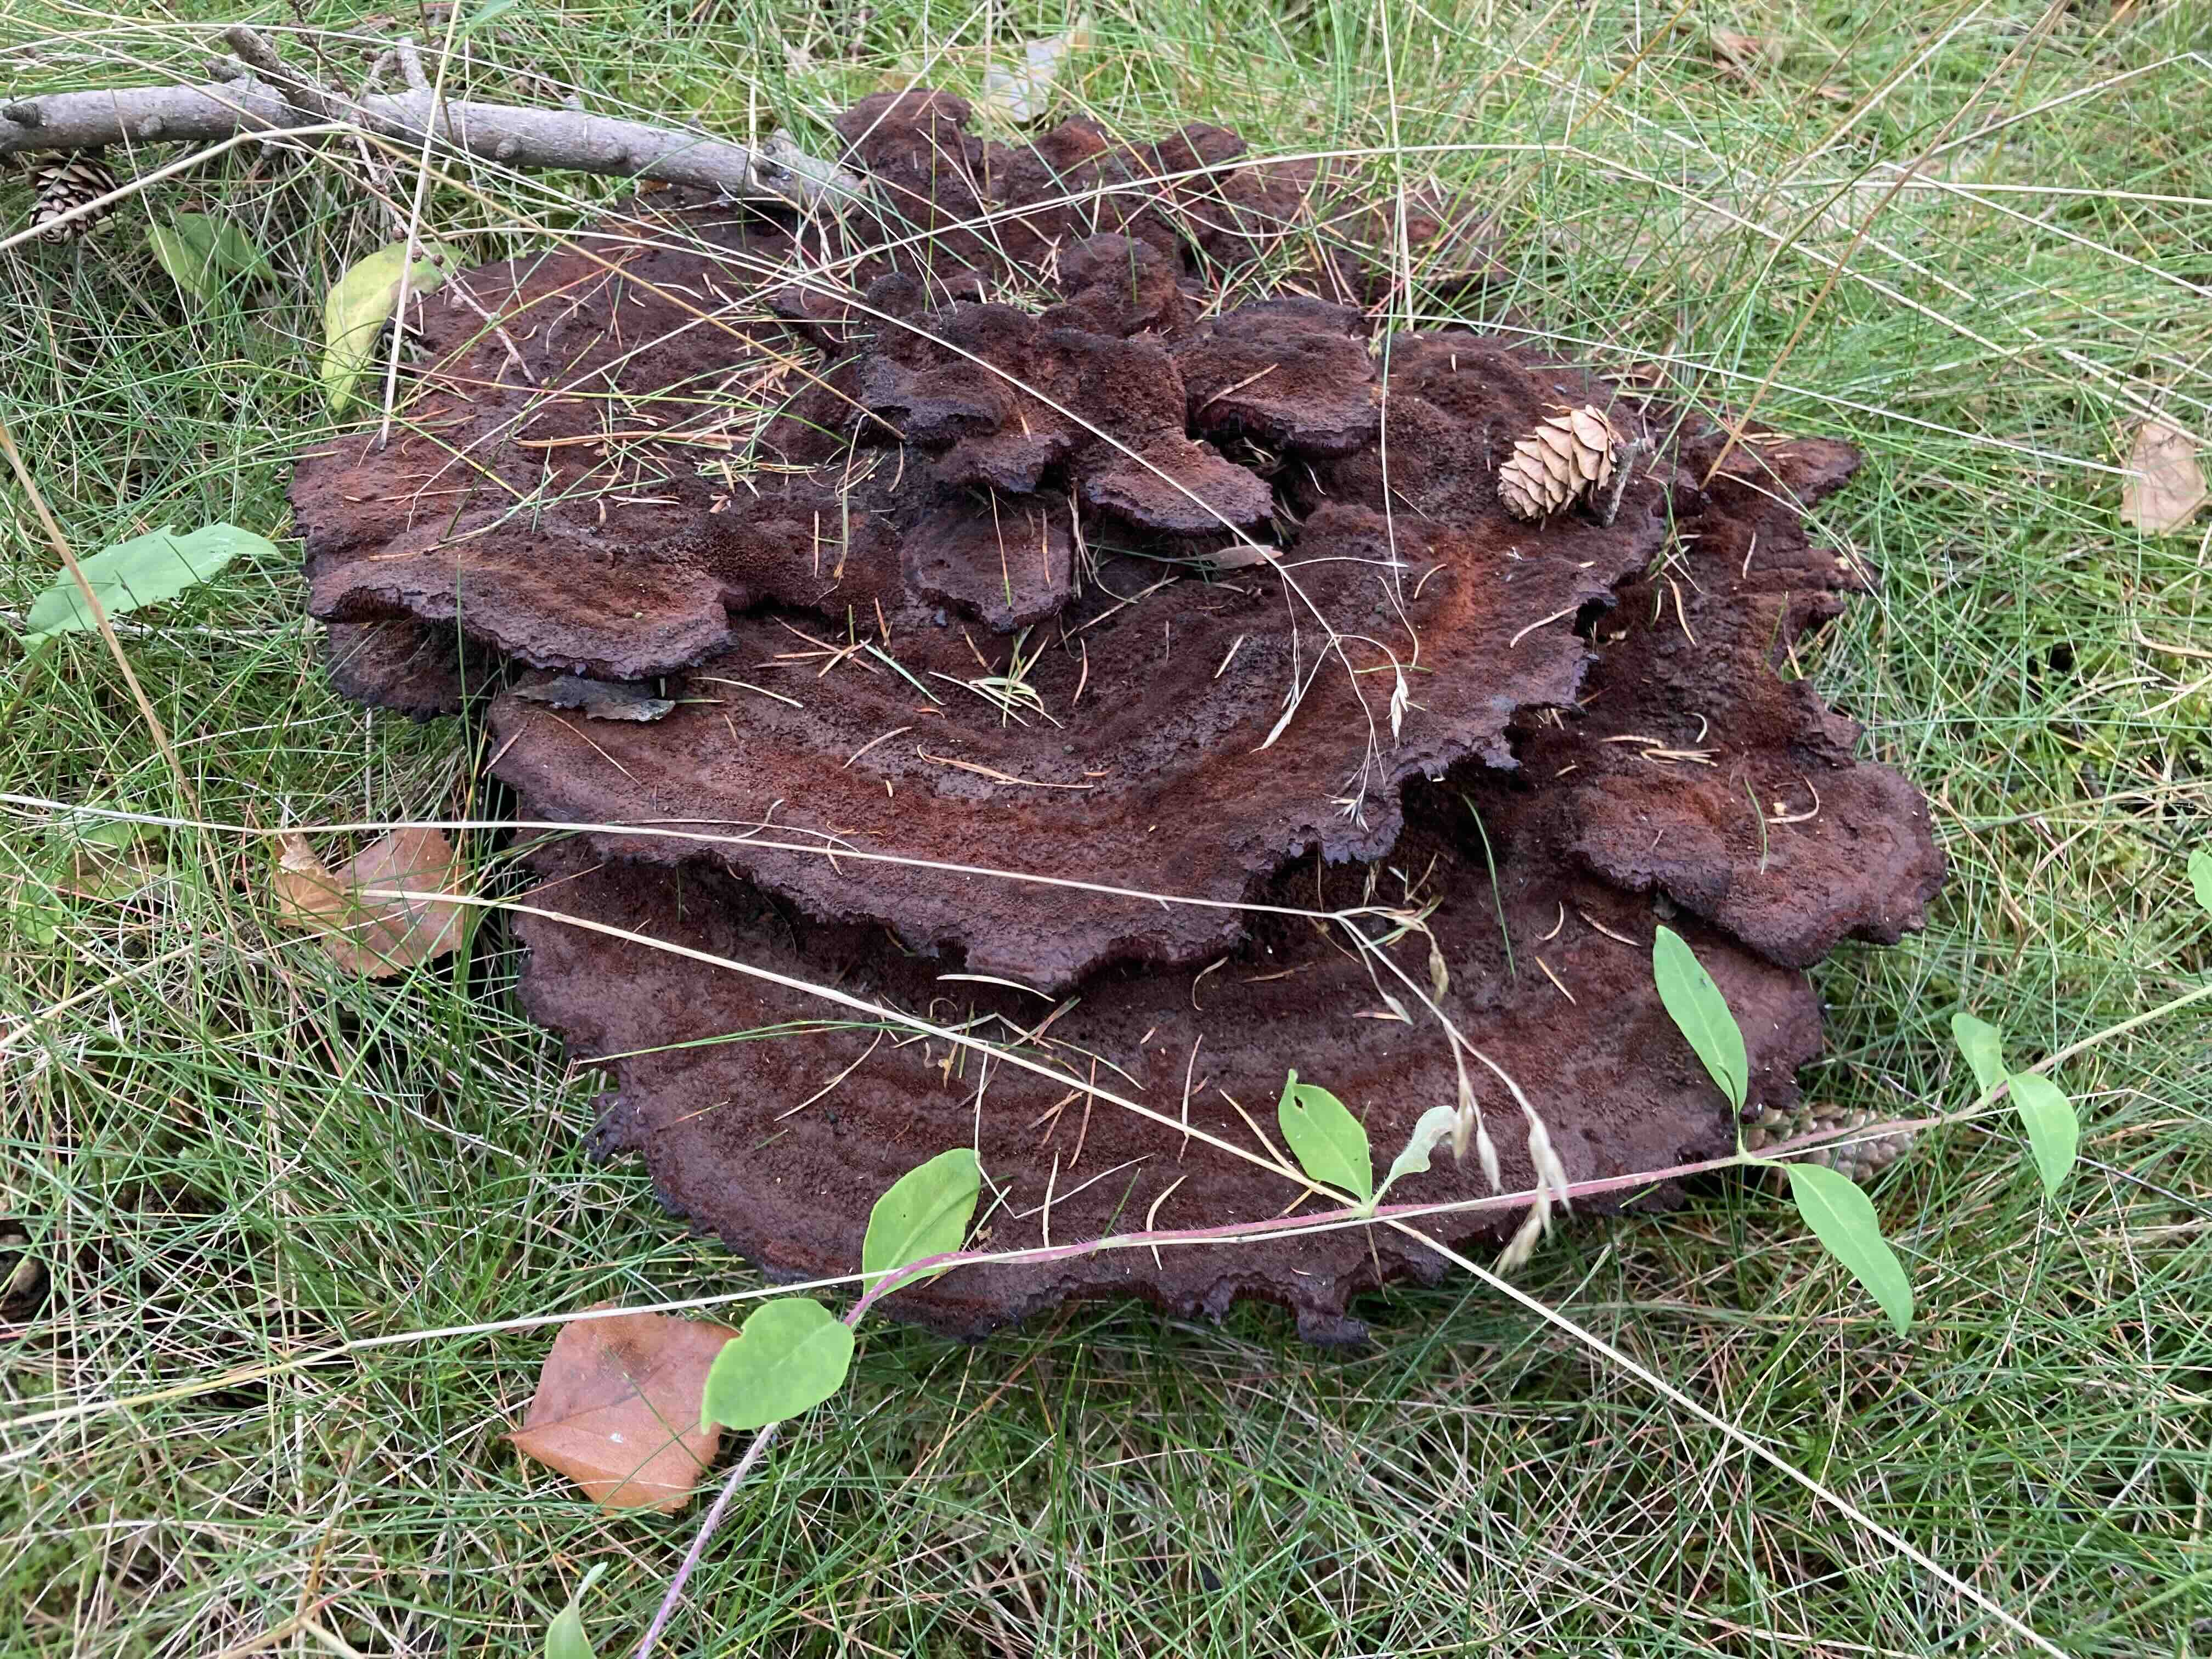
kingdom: Fungi
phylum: Basidiomycota
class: Agaricomycetes
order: Polyporales
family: Laetiporaceae
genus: Phaeolus
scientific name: Phaeolus schweinitzii
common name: brunporesvamp
